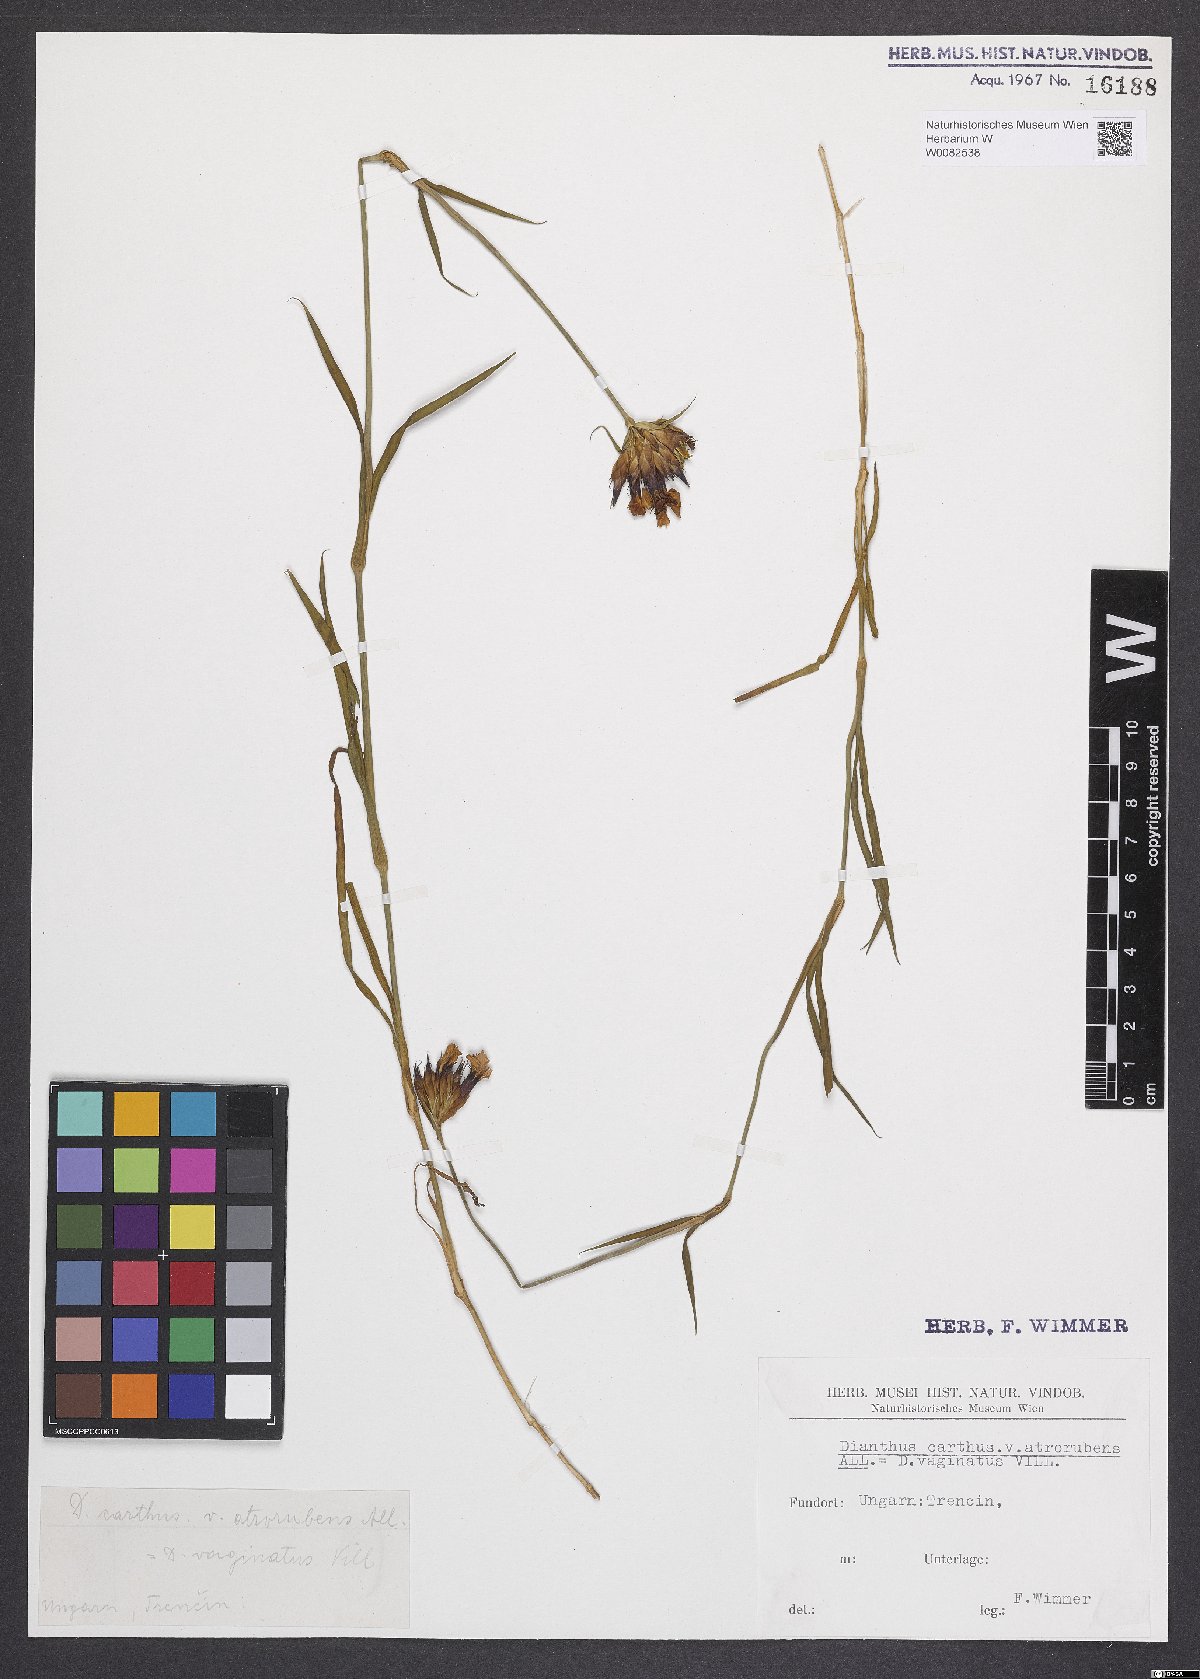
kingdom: Plantae
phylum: Tracheophyta
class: Magnoliopsida
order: Caryophyllales
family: Caryophyllaceae
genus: Dianthus
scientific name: Dianthus carthusianorum
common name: Carthusian pink
